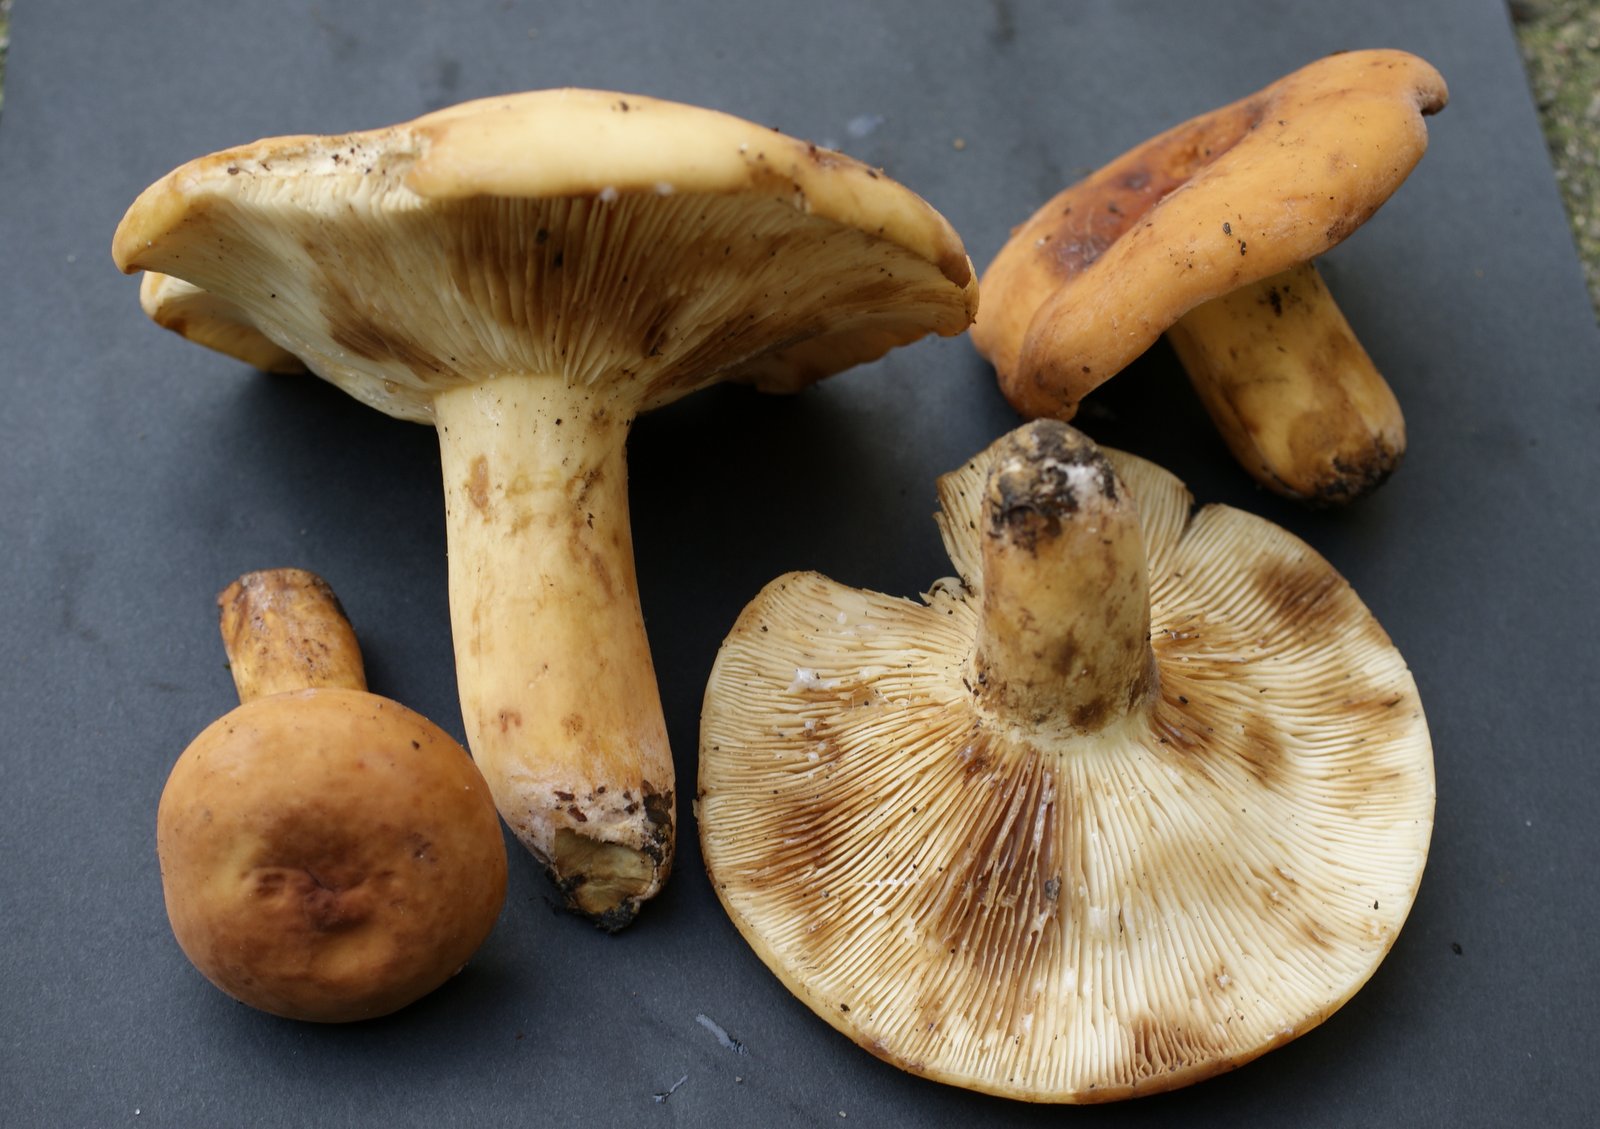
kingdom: Fungi
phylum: Basidiomycota
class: Agaricomycetes
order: Russulales
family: Russulaceae
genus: Lactifluus
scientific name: Lactifluus subvolemus
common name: hummer-mælkehat
